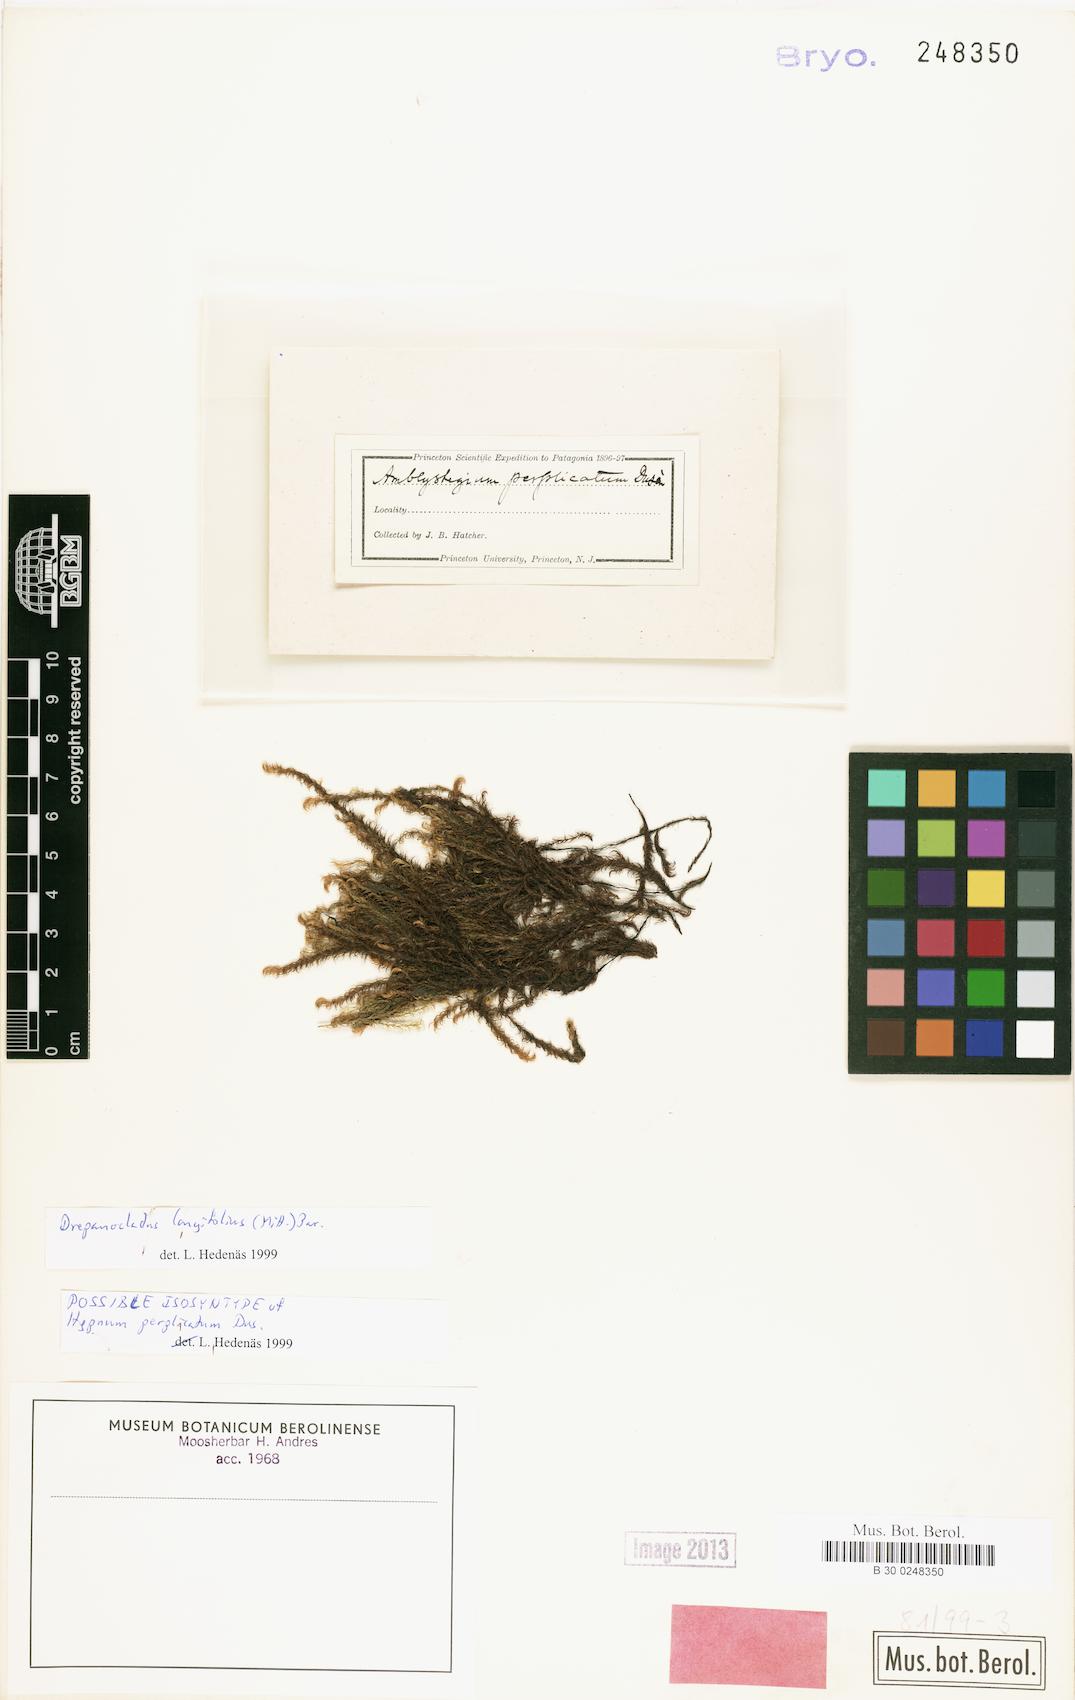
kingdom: Plantae
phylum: Bryophyta
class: Bryopsida
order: Hypnales
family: Amblystegiaceae
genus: Drepanocladus
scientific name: Drepanocladus longifolius
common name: Long-leaved hook moss
